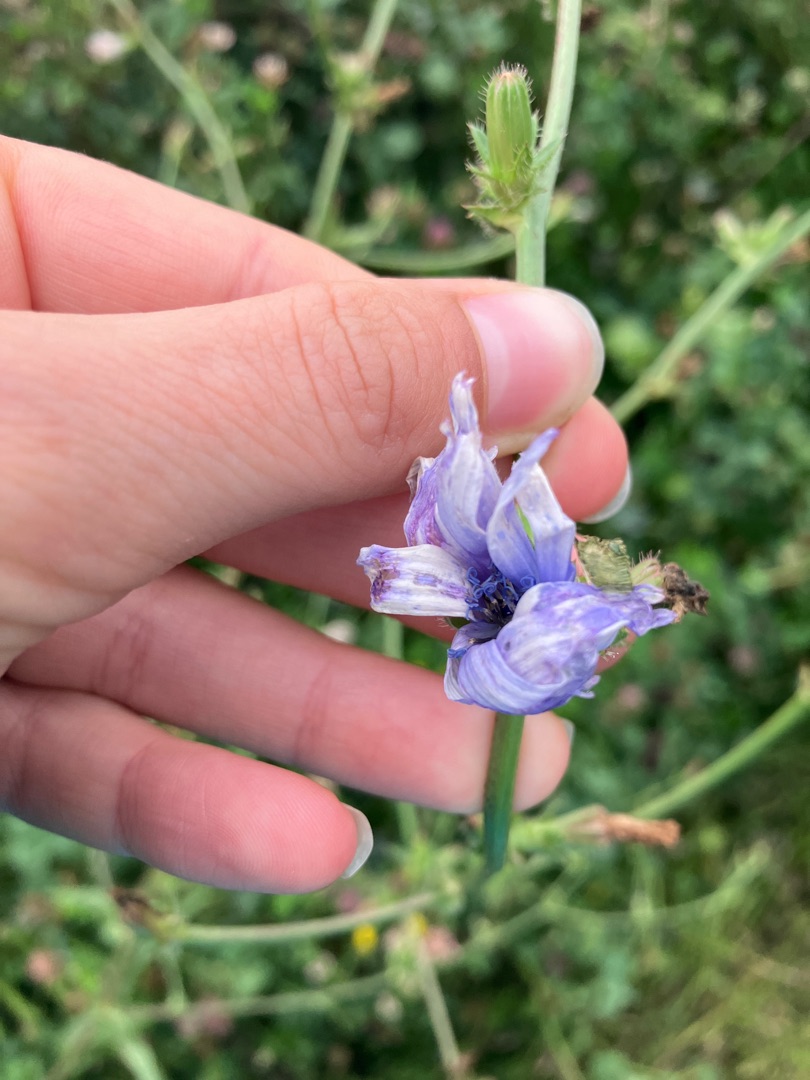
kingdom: Plantae
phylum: Tracheophyta
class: Magnoliopsida
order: Asterales
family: Asteraceae
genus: Cichorium
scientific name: Cichorium intybus
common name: Cikorie
